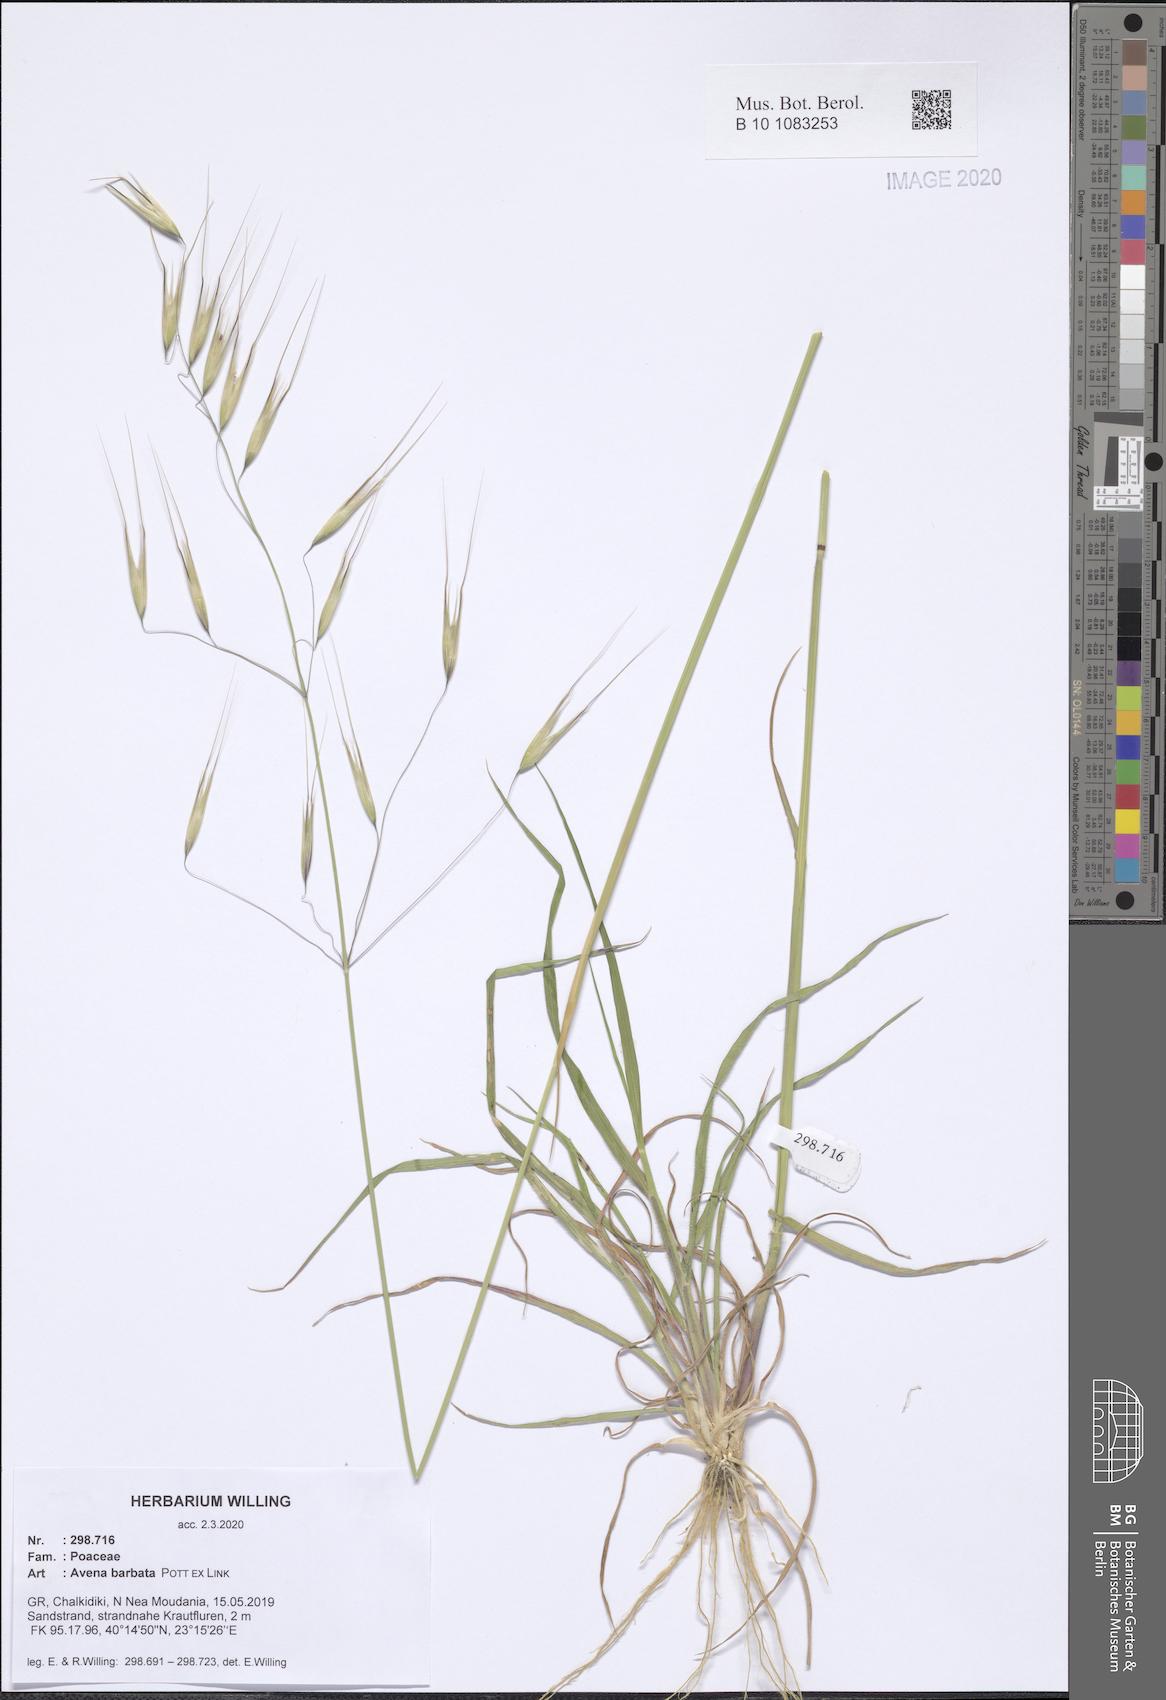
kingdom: Plantae
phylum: Tracheophyta
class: Liliopsida
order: Poales
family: Poaceae
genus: Avena
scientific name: Avena barbata
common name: Slender oat
